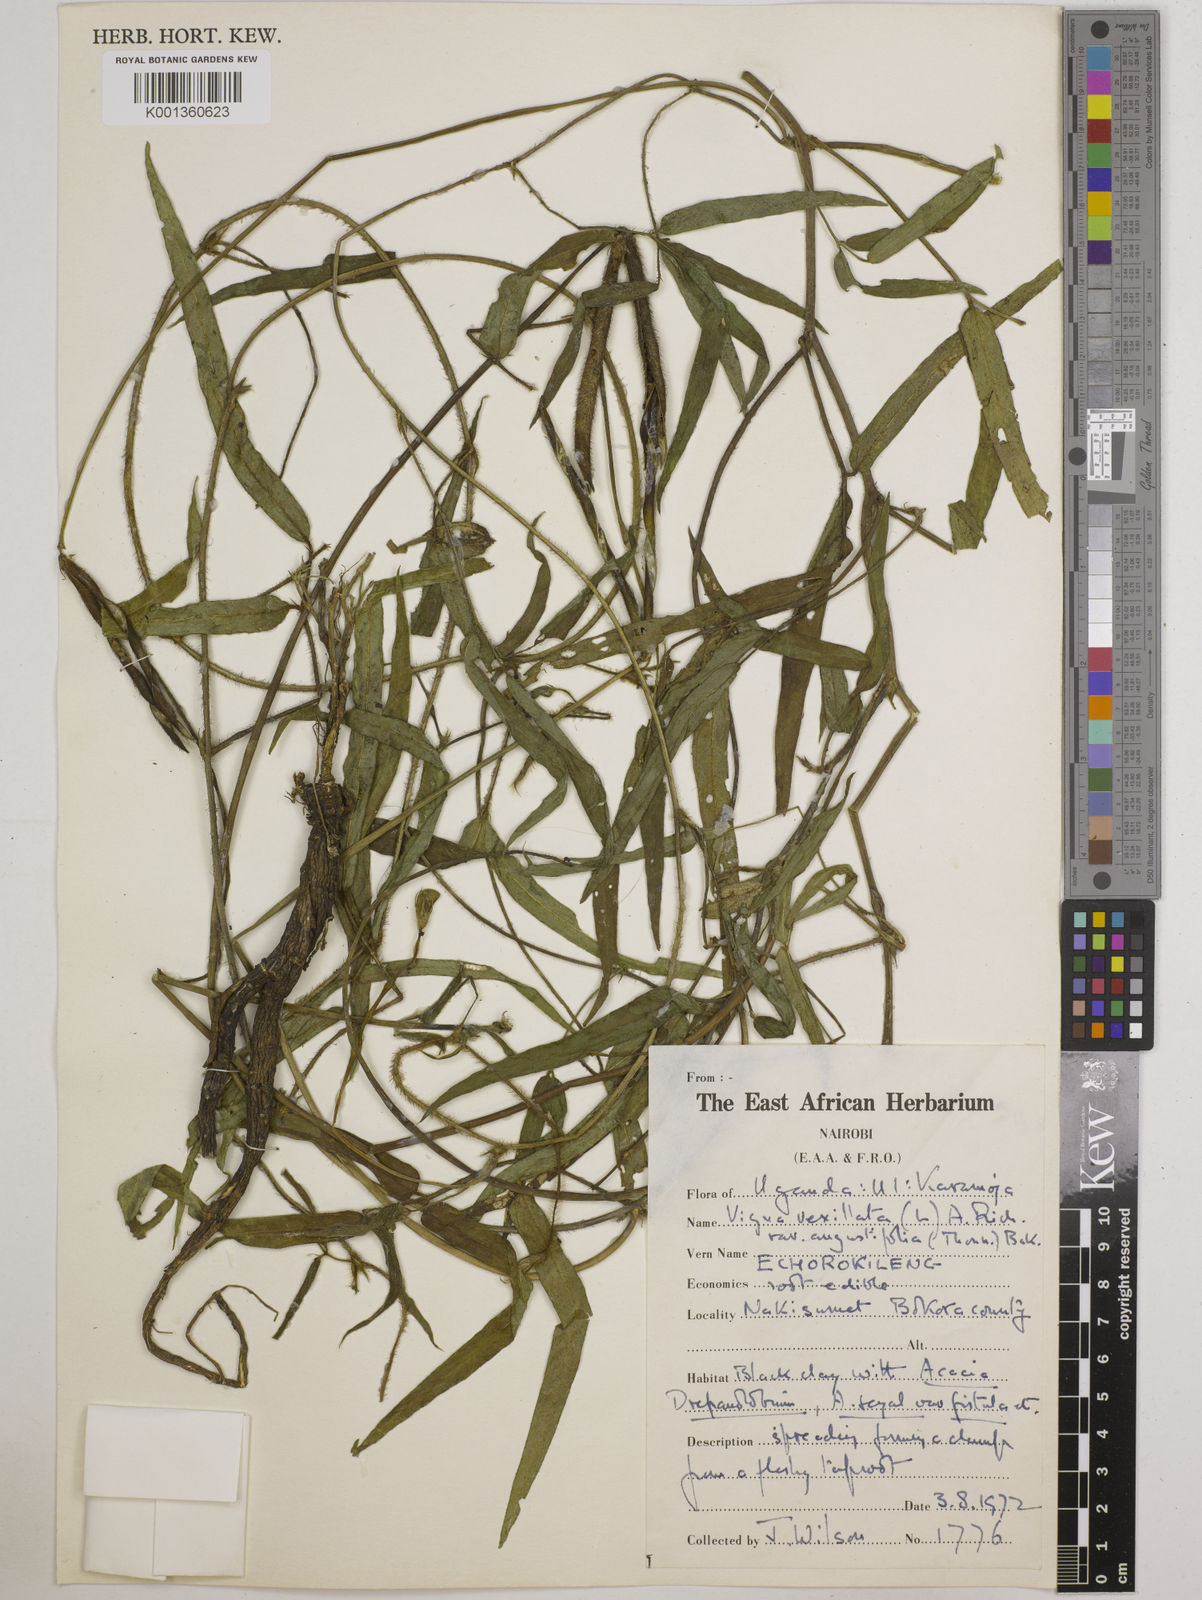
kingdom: Plantae
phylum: Tracheophyta
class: Magnoliopsida
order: Fabales
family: Fabaceae
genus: Vigna
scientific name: Vigna vexillata
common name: Zombi pea
